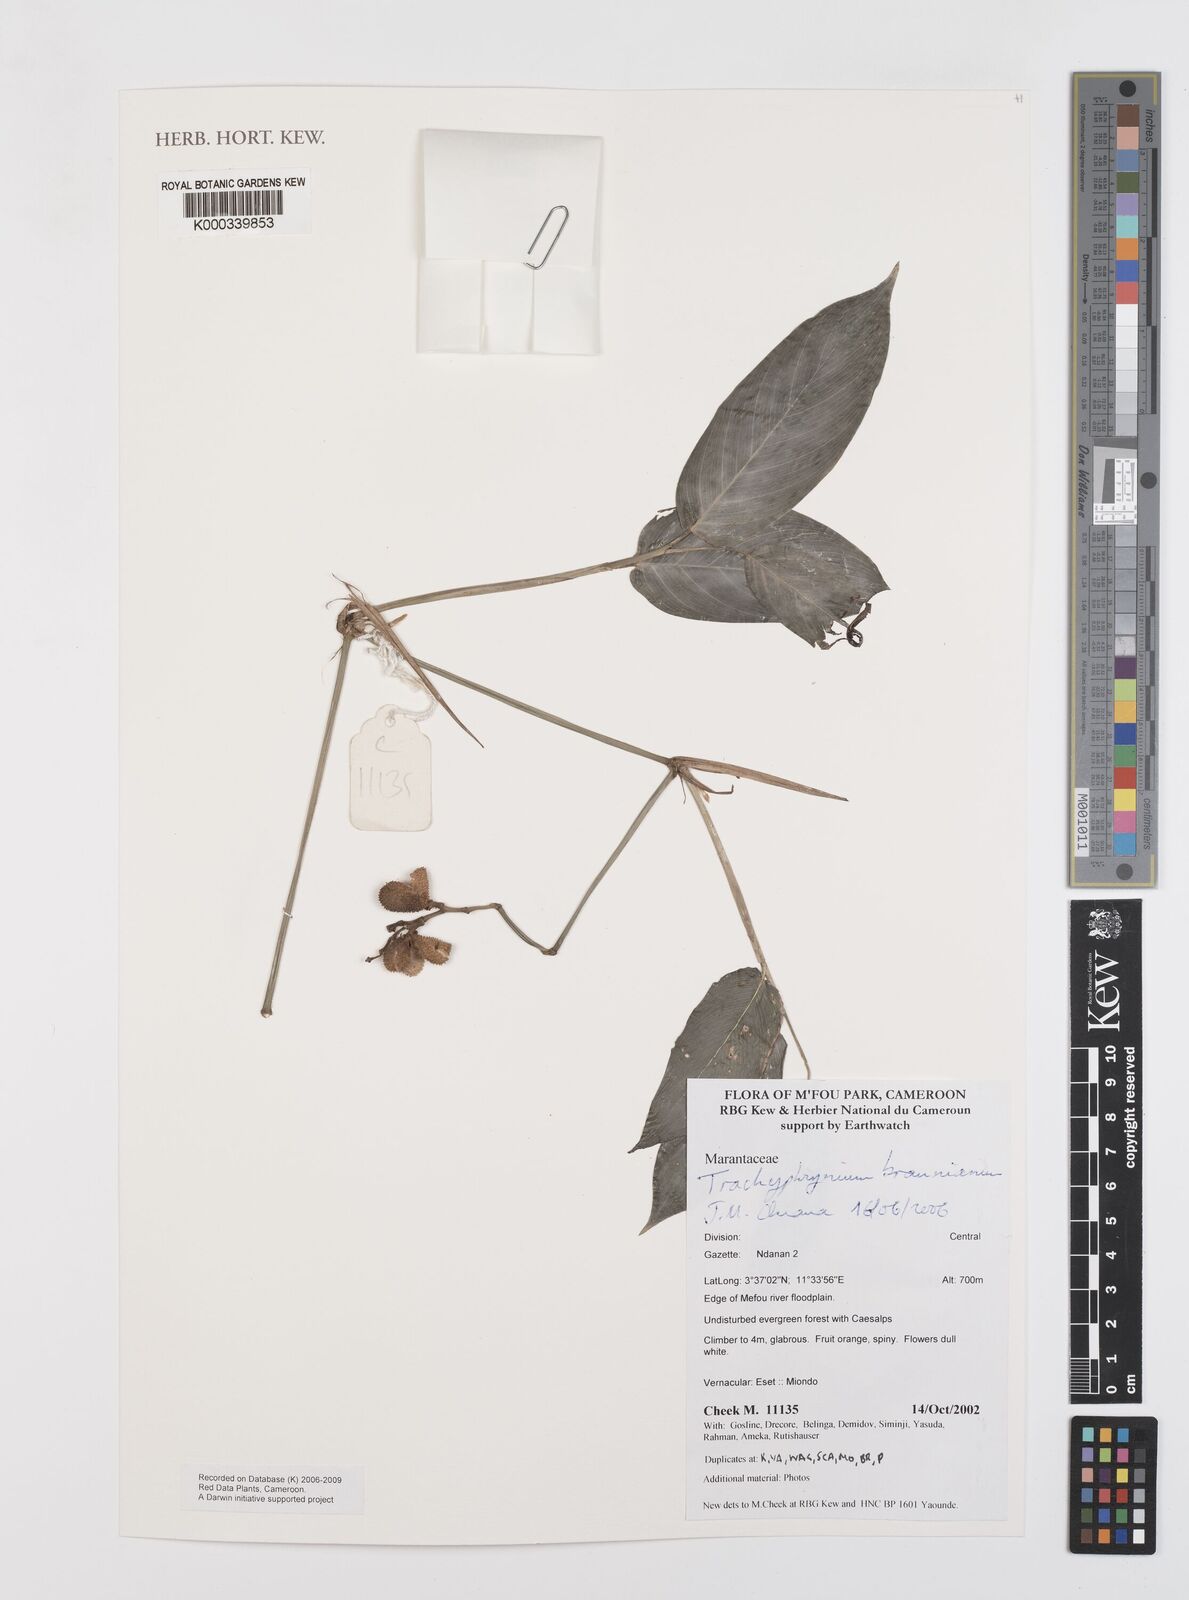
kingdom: Plantae
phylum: Tracheophyta
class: Liliopsida
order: Zingiberales
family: Marantaceae
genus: Trachyphrynium
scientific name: Trachyphrynium braunianum
